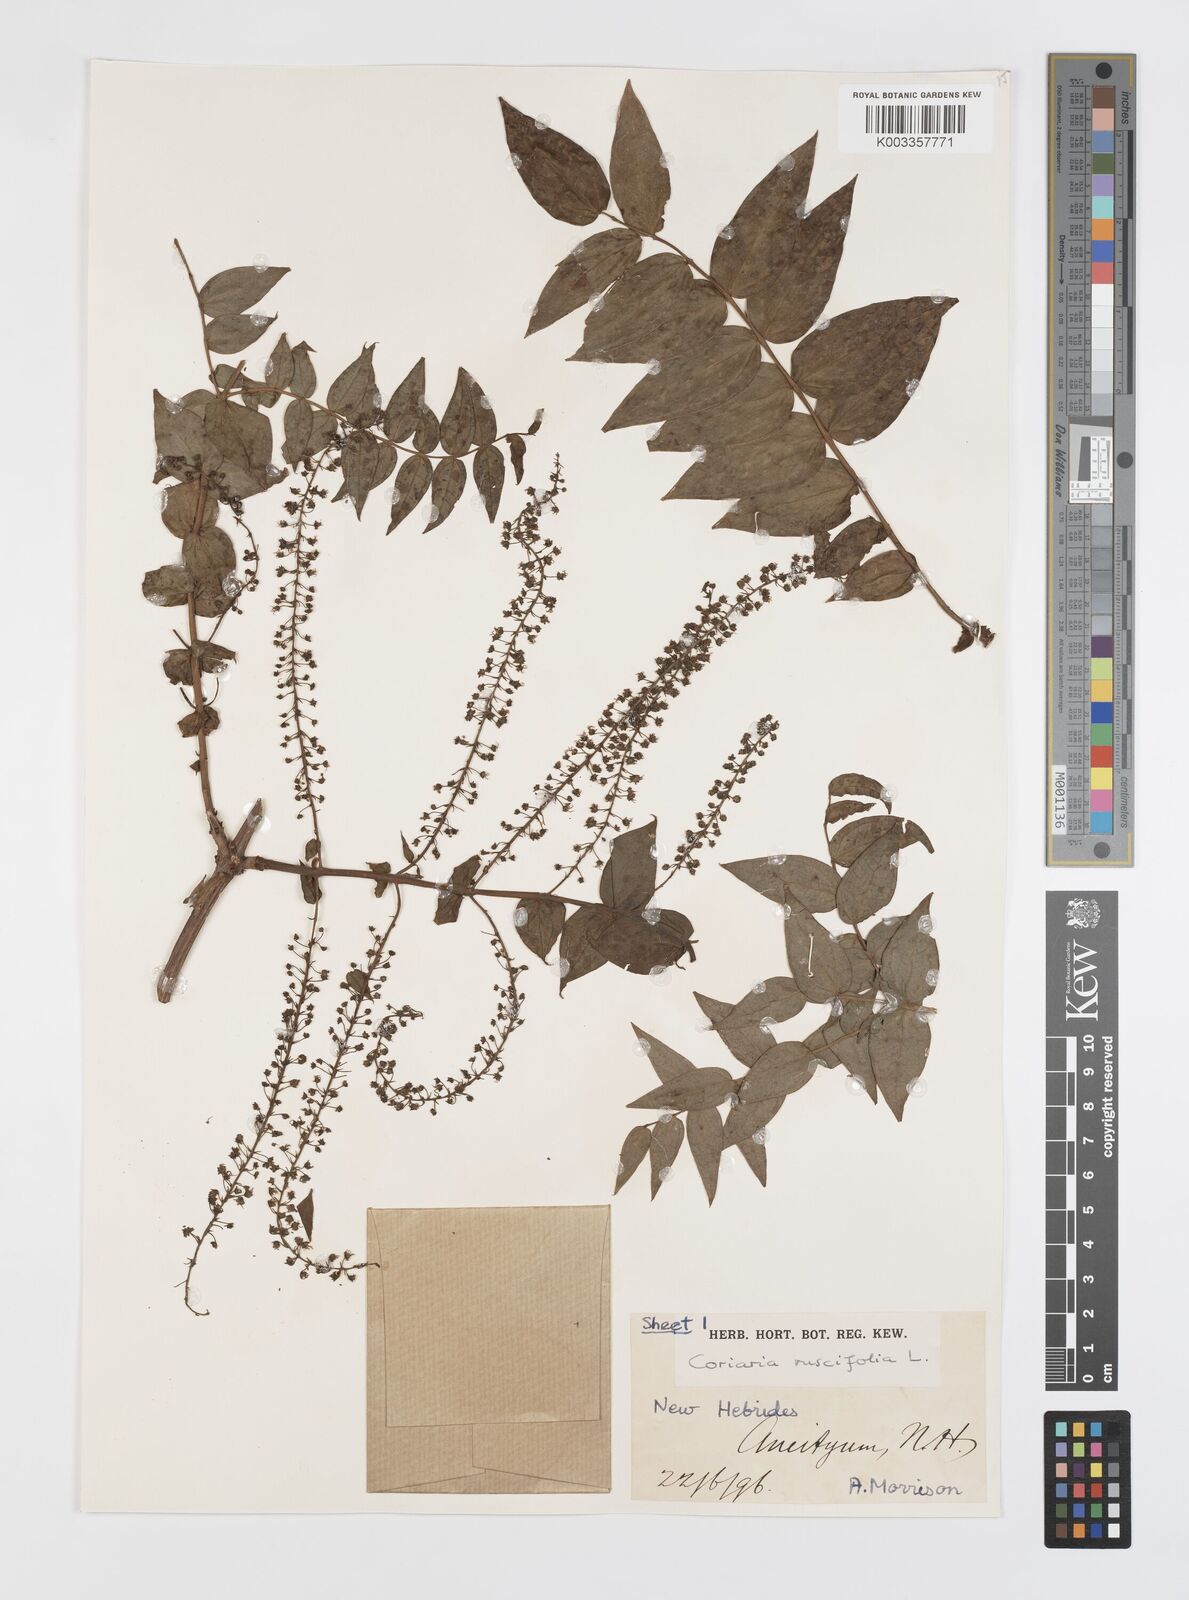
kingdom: Plantae
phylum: Tracheophyta
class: Magnoliopsida
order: Cucurbitales
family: Coriariaceae
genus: Coriaria
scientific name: Coriaria ruscifolia
